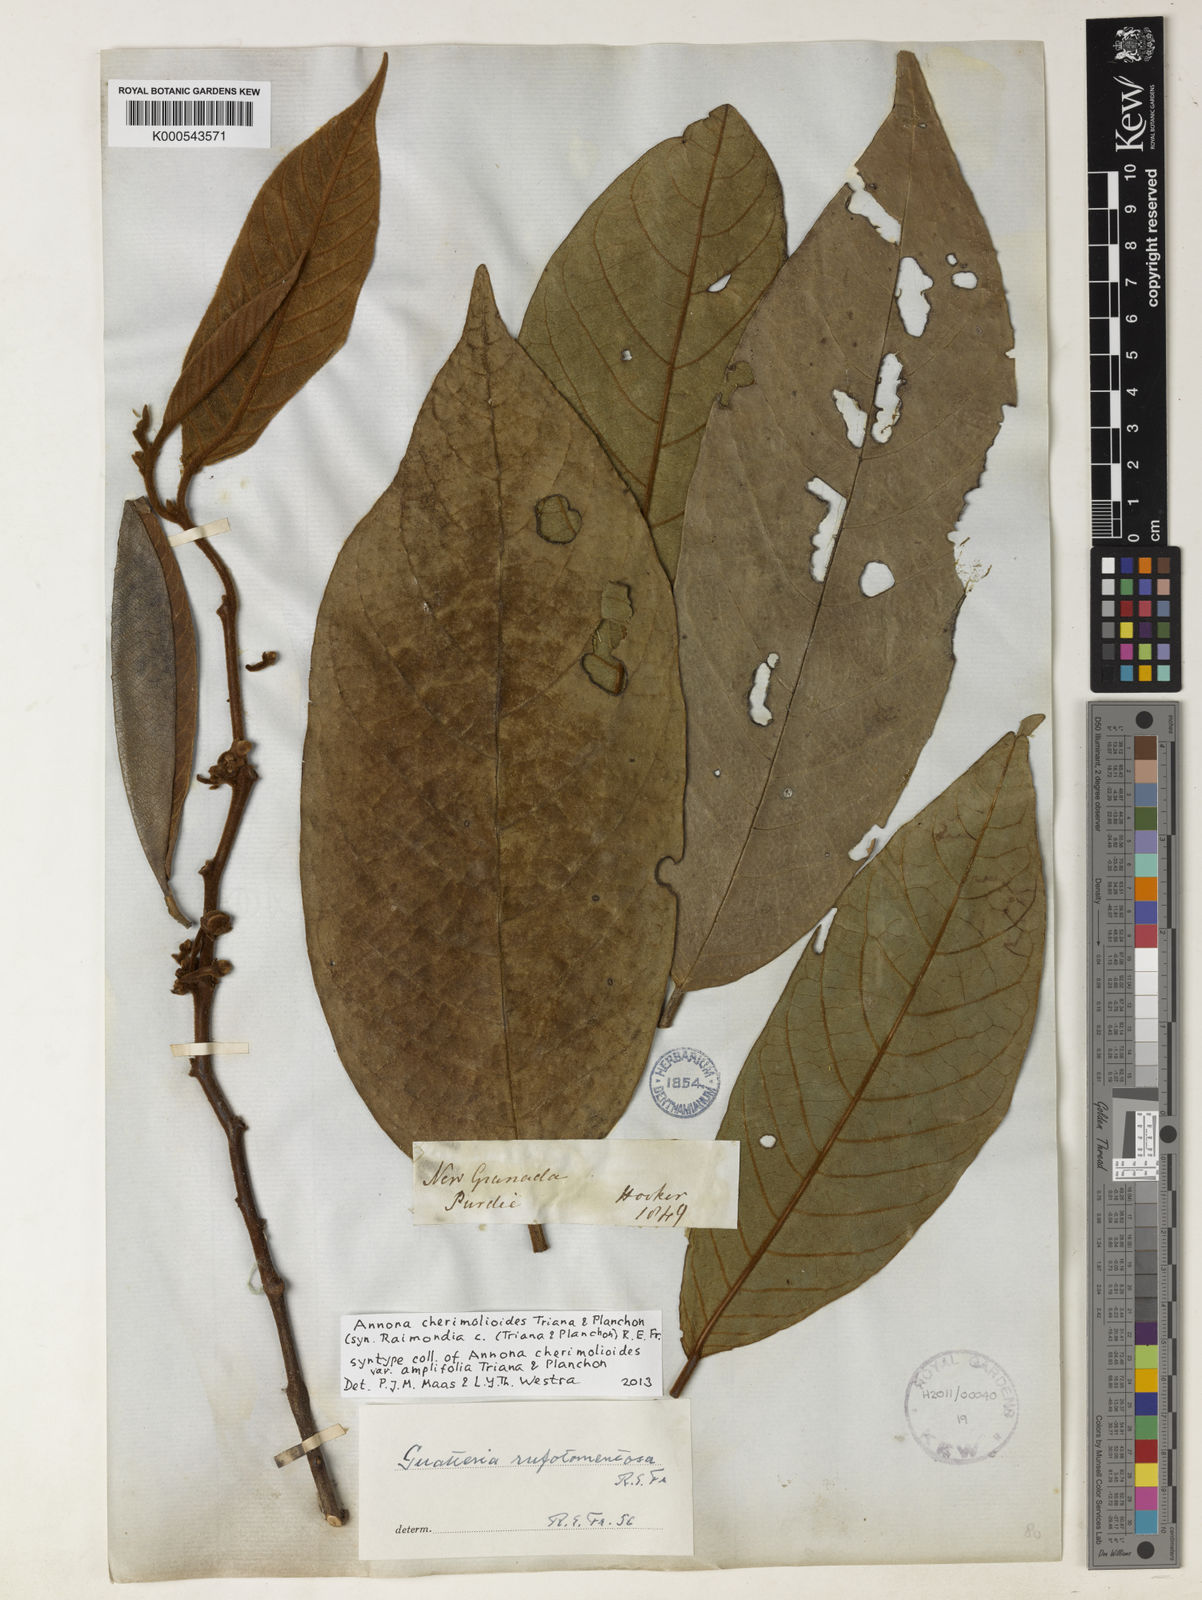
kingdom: Plantae
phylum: Tracheophyta
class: Magnoliopsida
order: Magnoliales
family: Annonaceae
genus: Annona
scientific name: Annona cherimolioides
